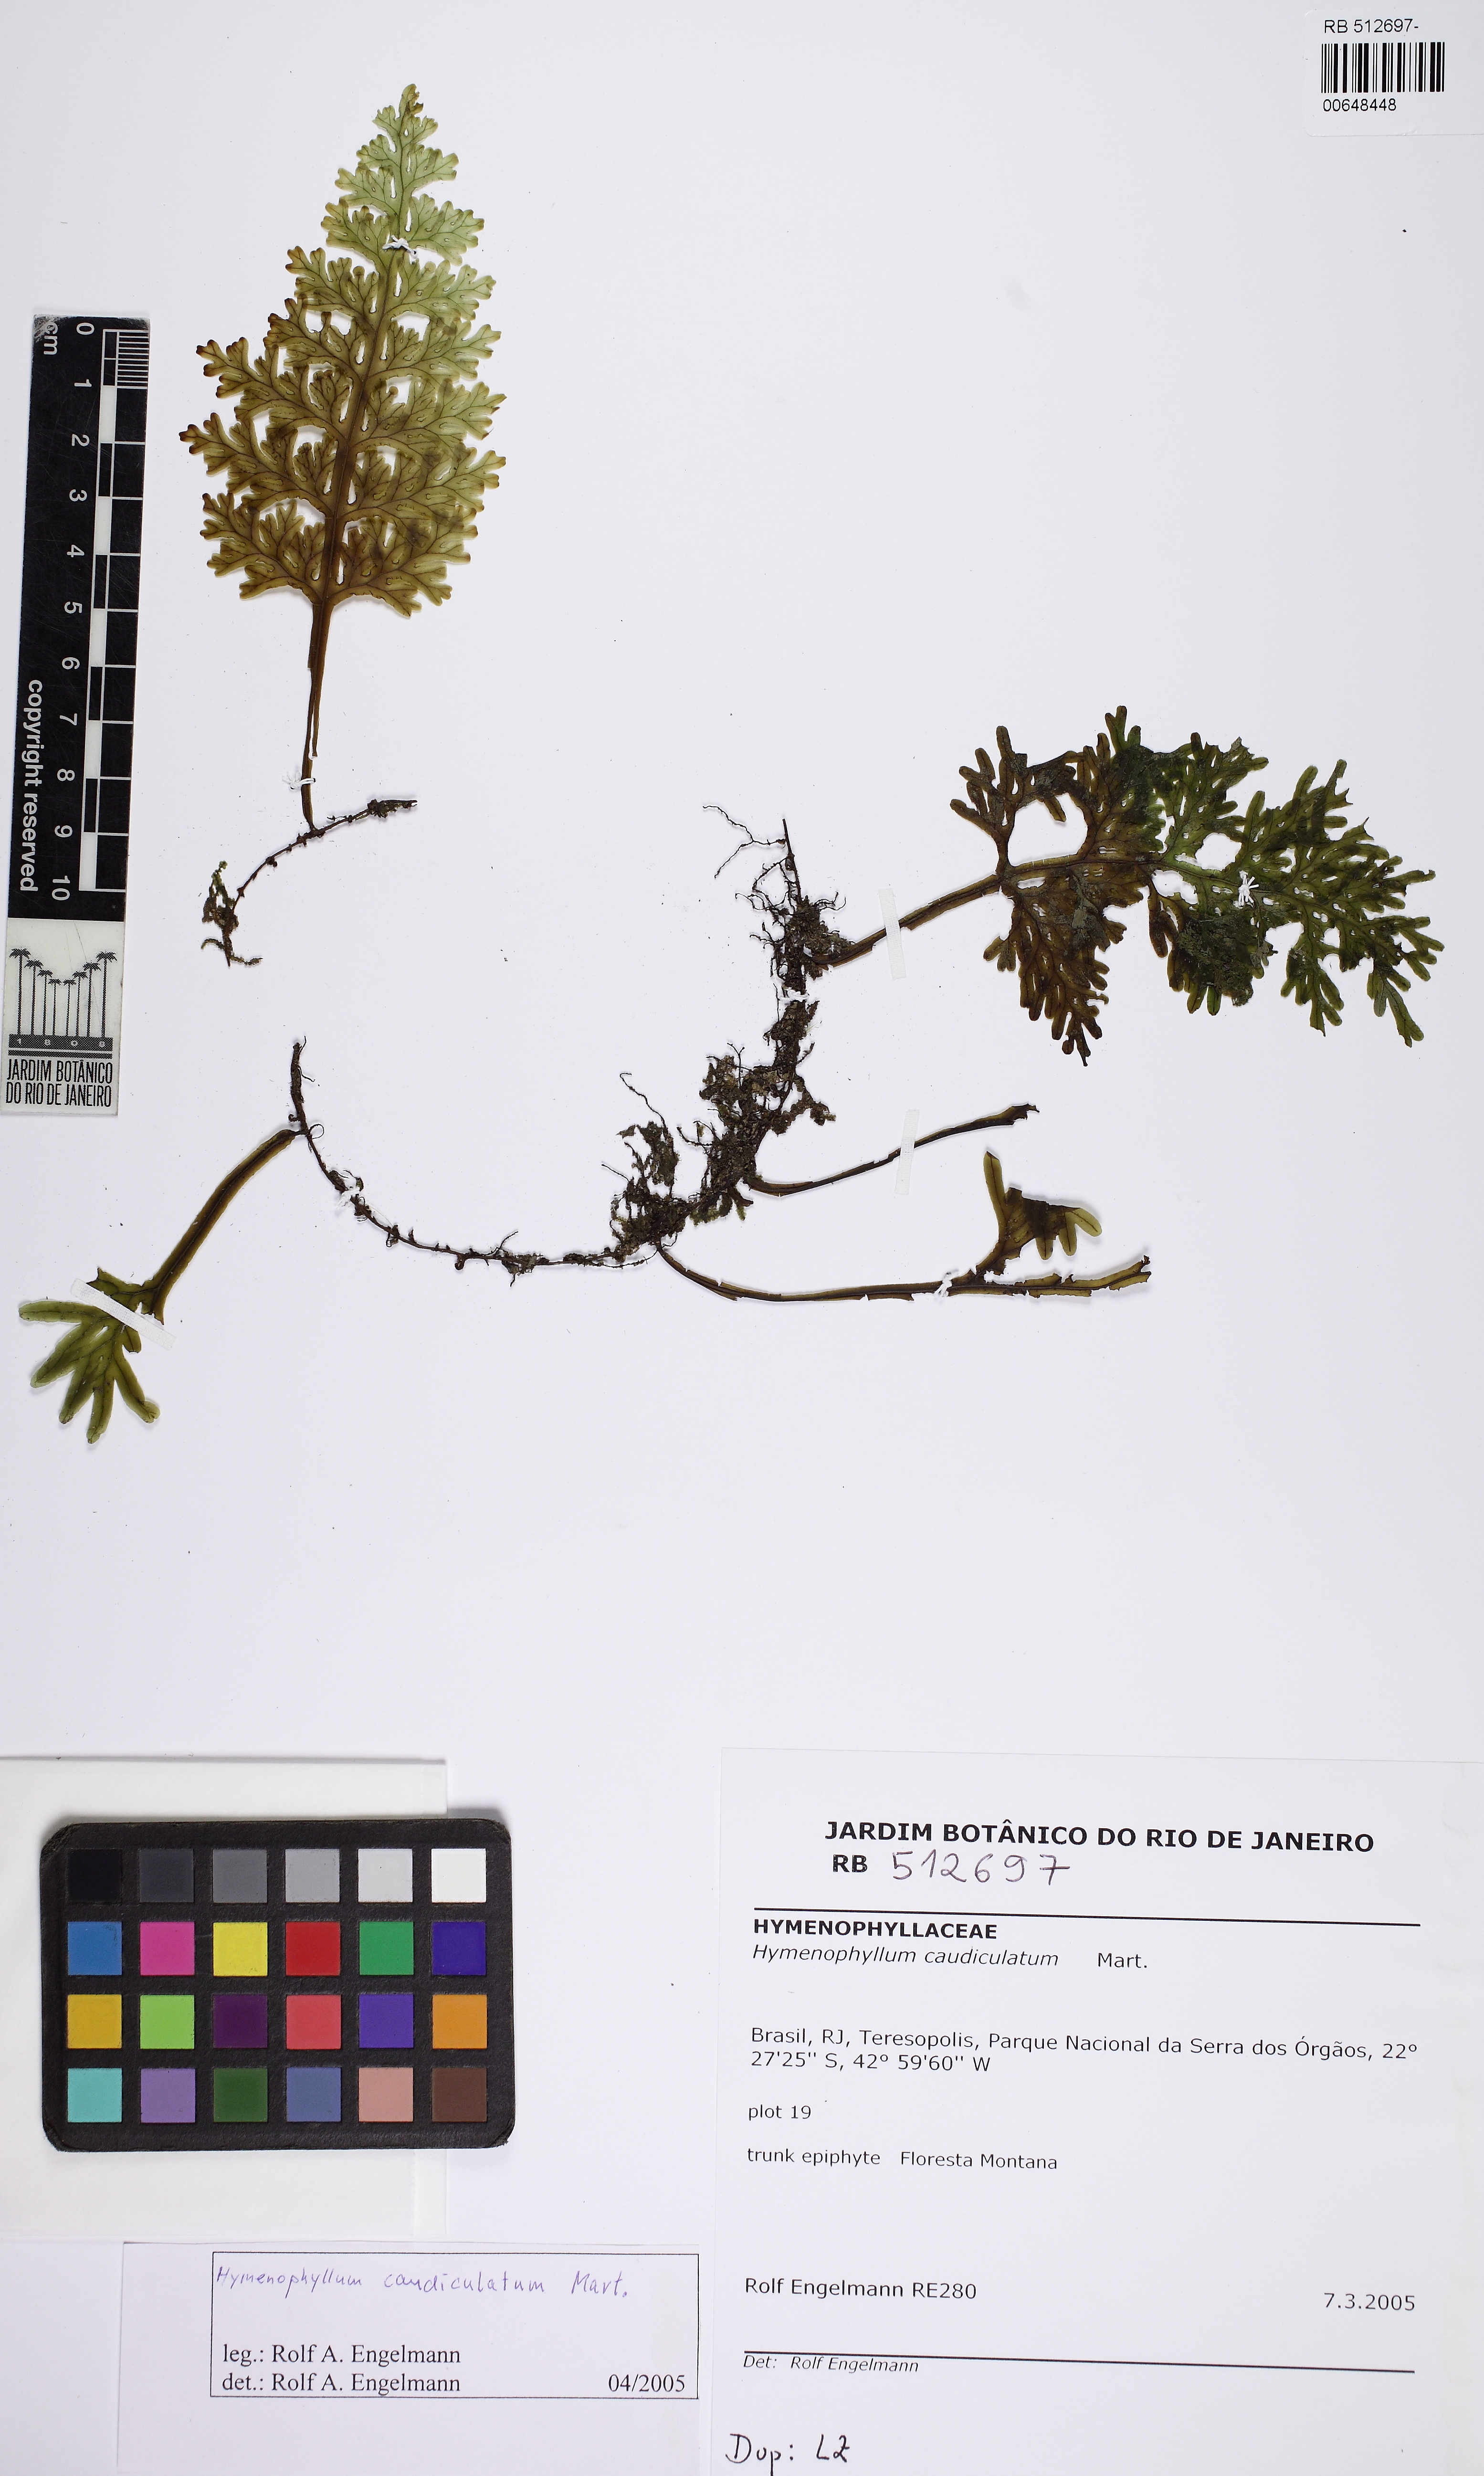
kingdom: Plantae
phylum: Tracheophyta
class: Polypodiopsida
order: Hymenophyllales
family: Hymenophyllaceae
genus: Hymenophyllum
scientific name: Hymenophyllum caudiculatum
